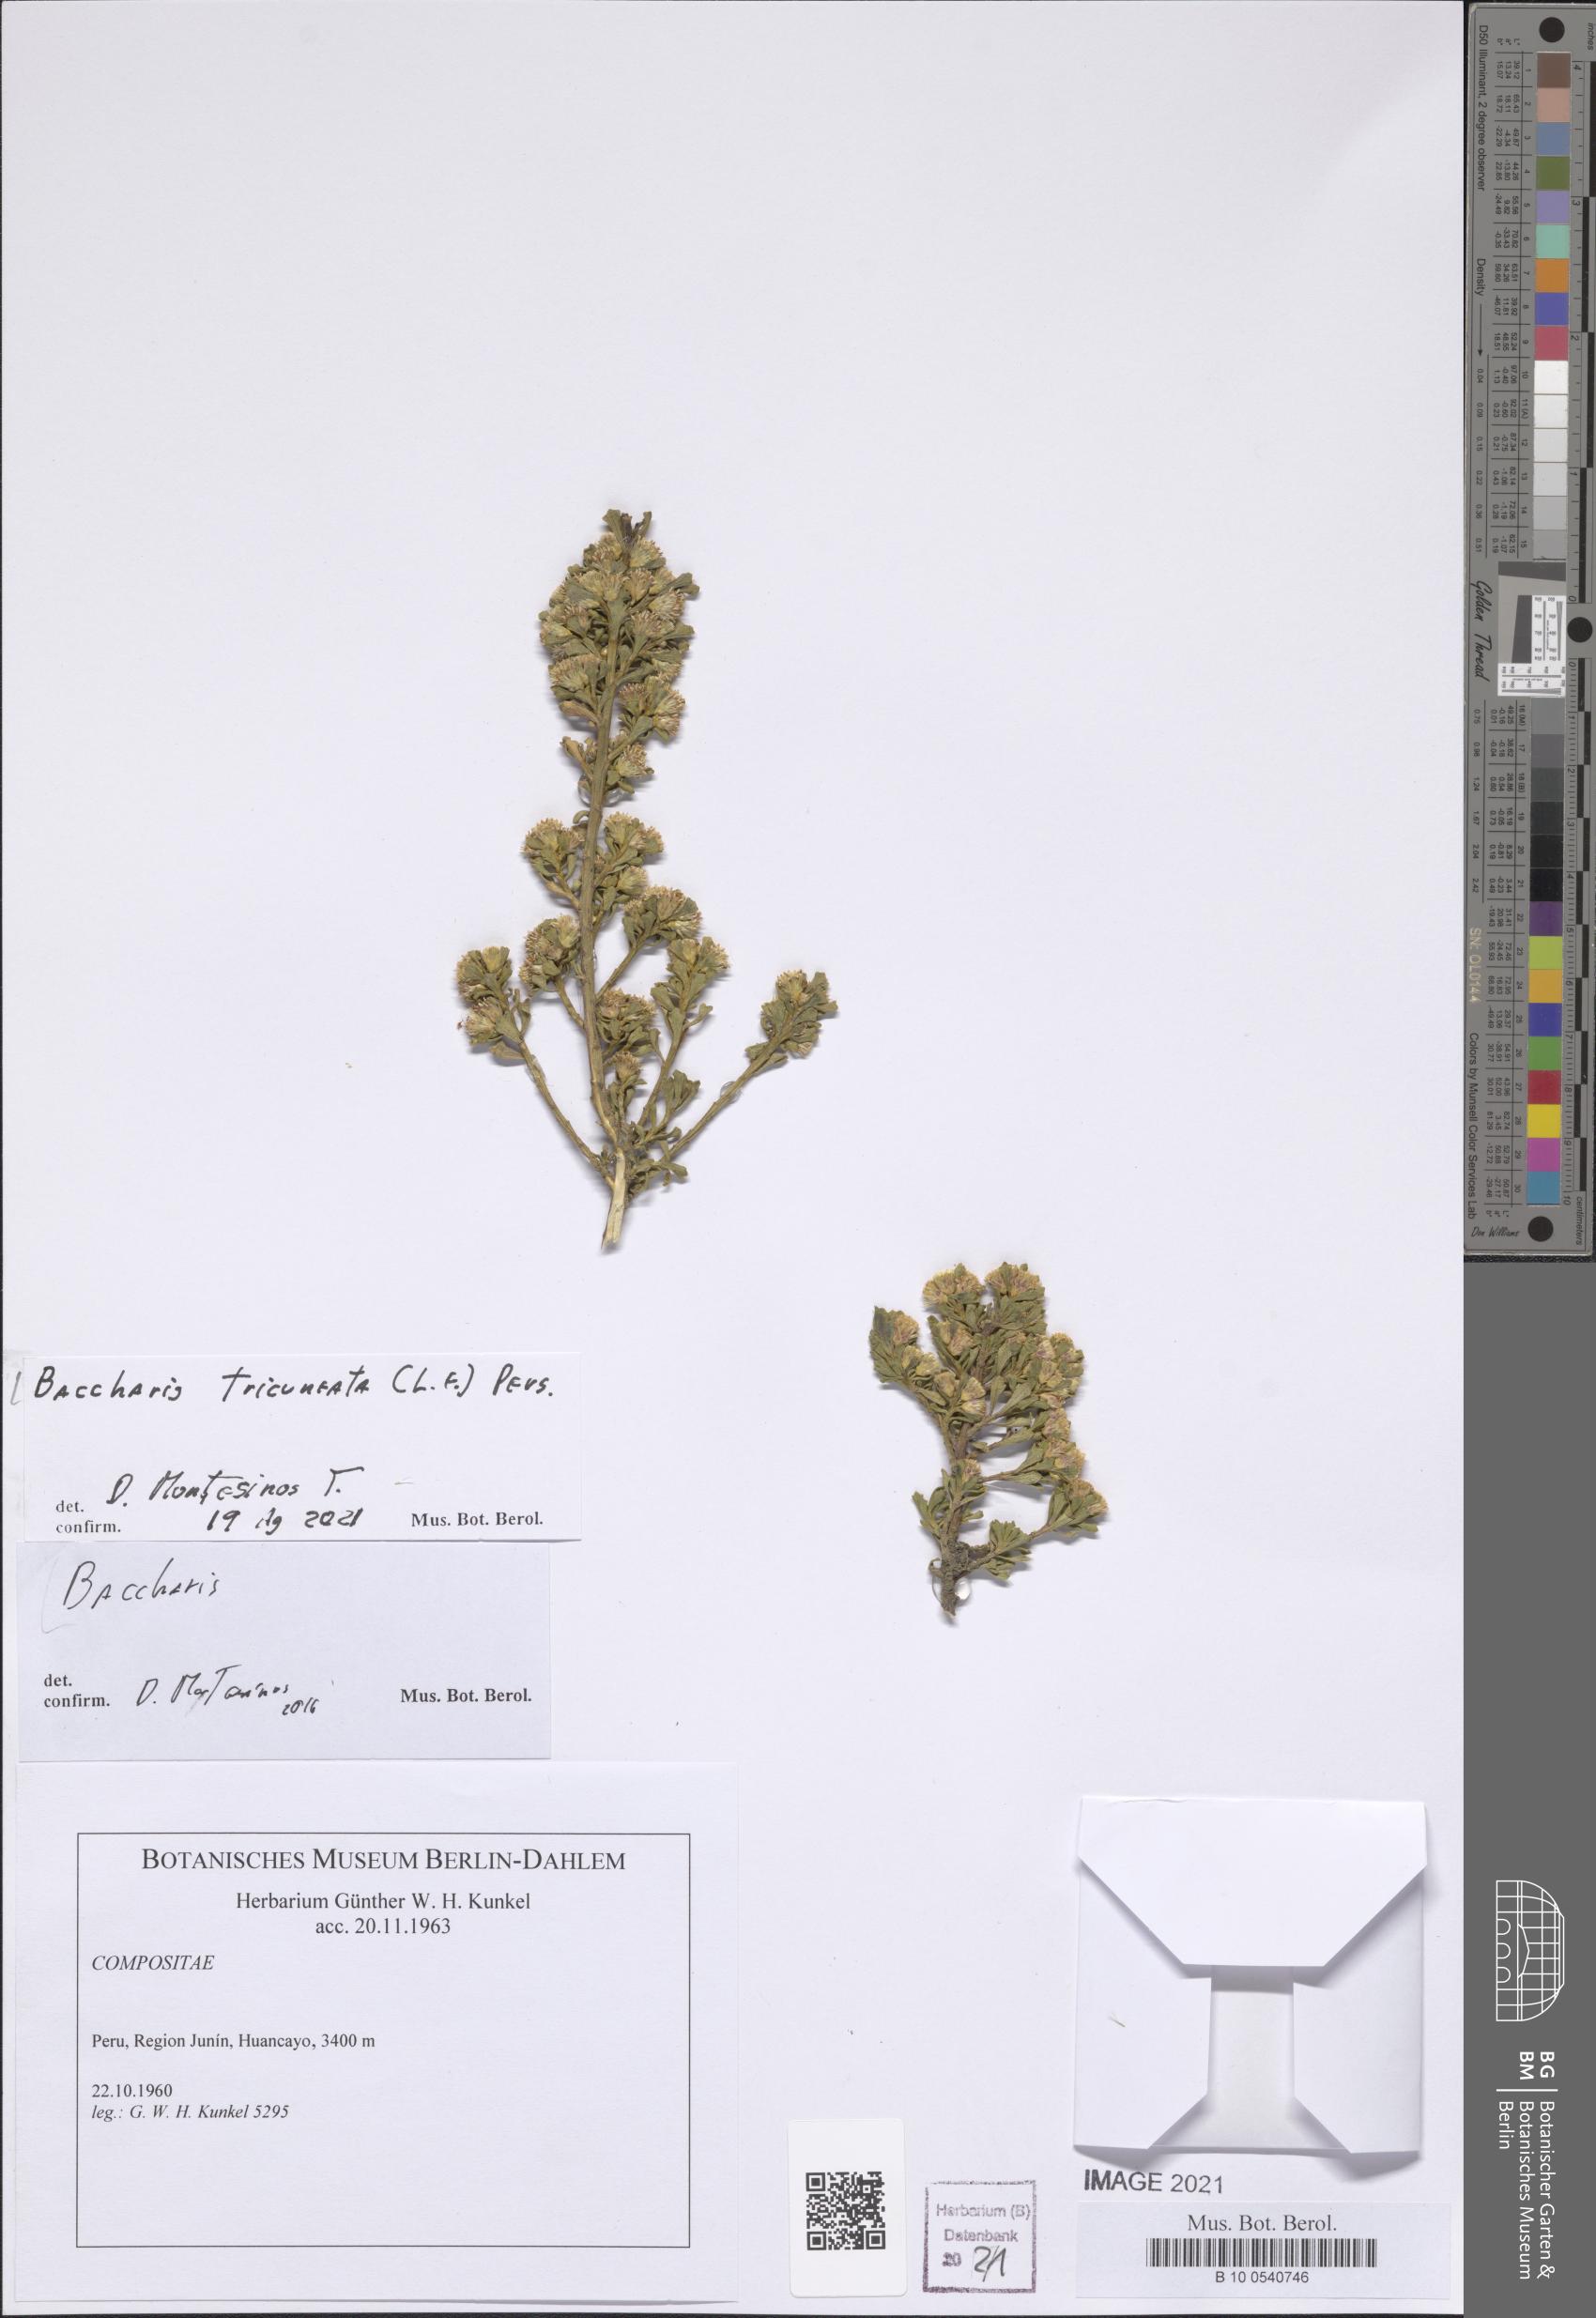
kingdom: Plantae
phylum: Tracheophyta
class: Magnoliopsida
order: Asterales
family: Asteraceae
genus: Baccharis
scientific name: Baccharis tricuneata
